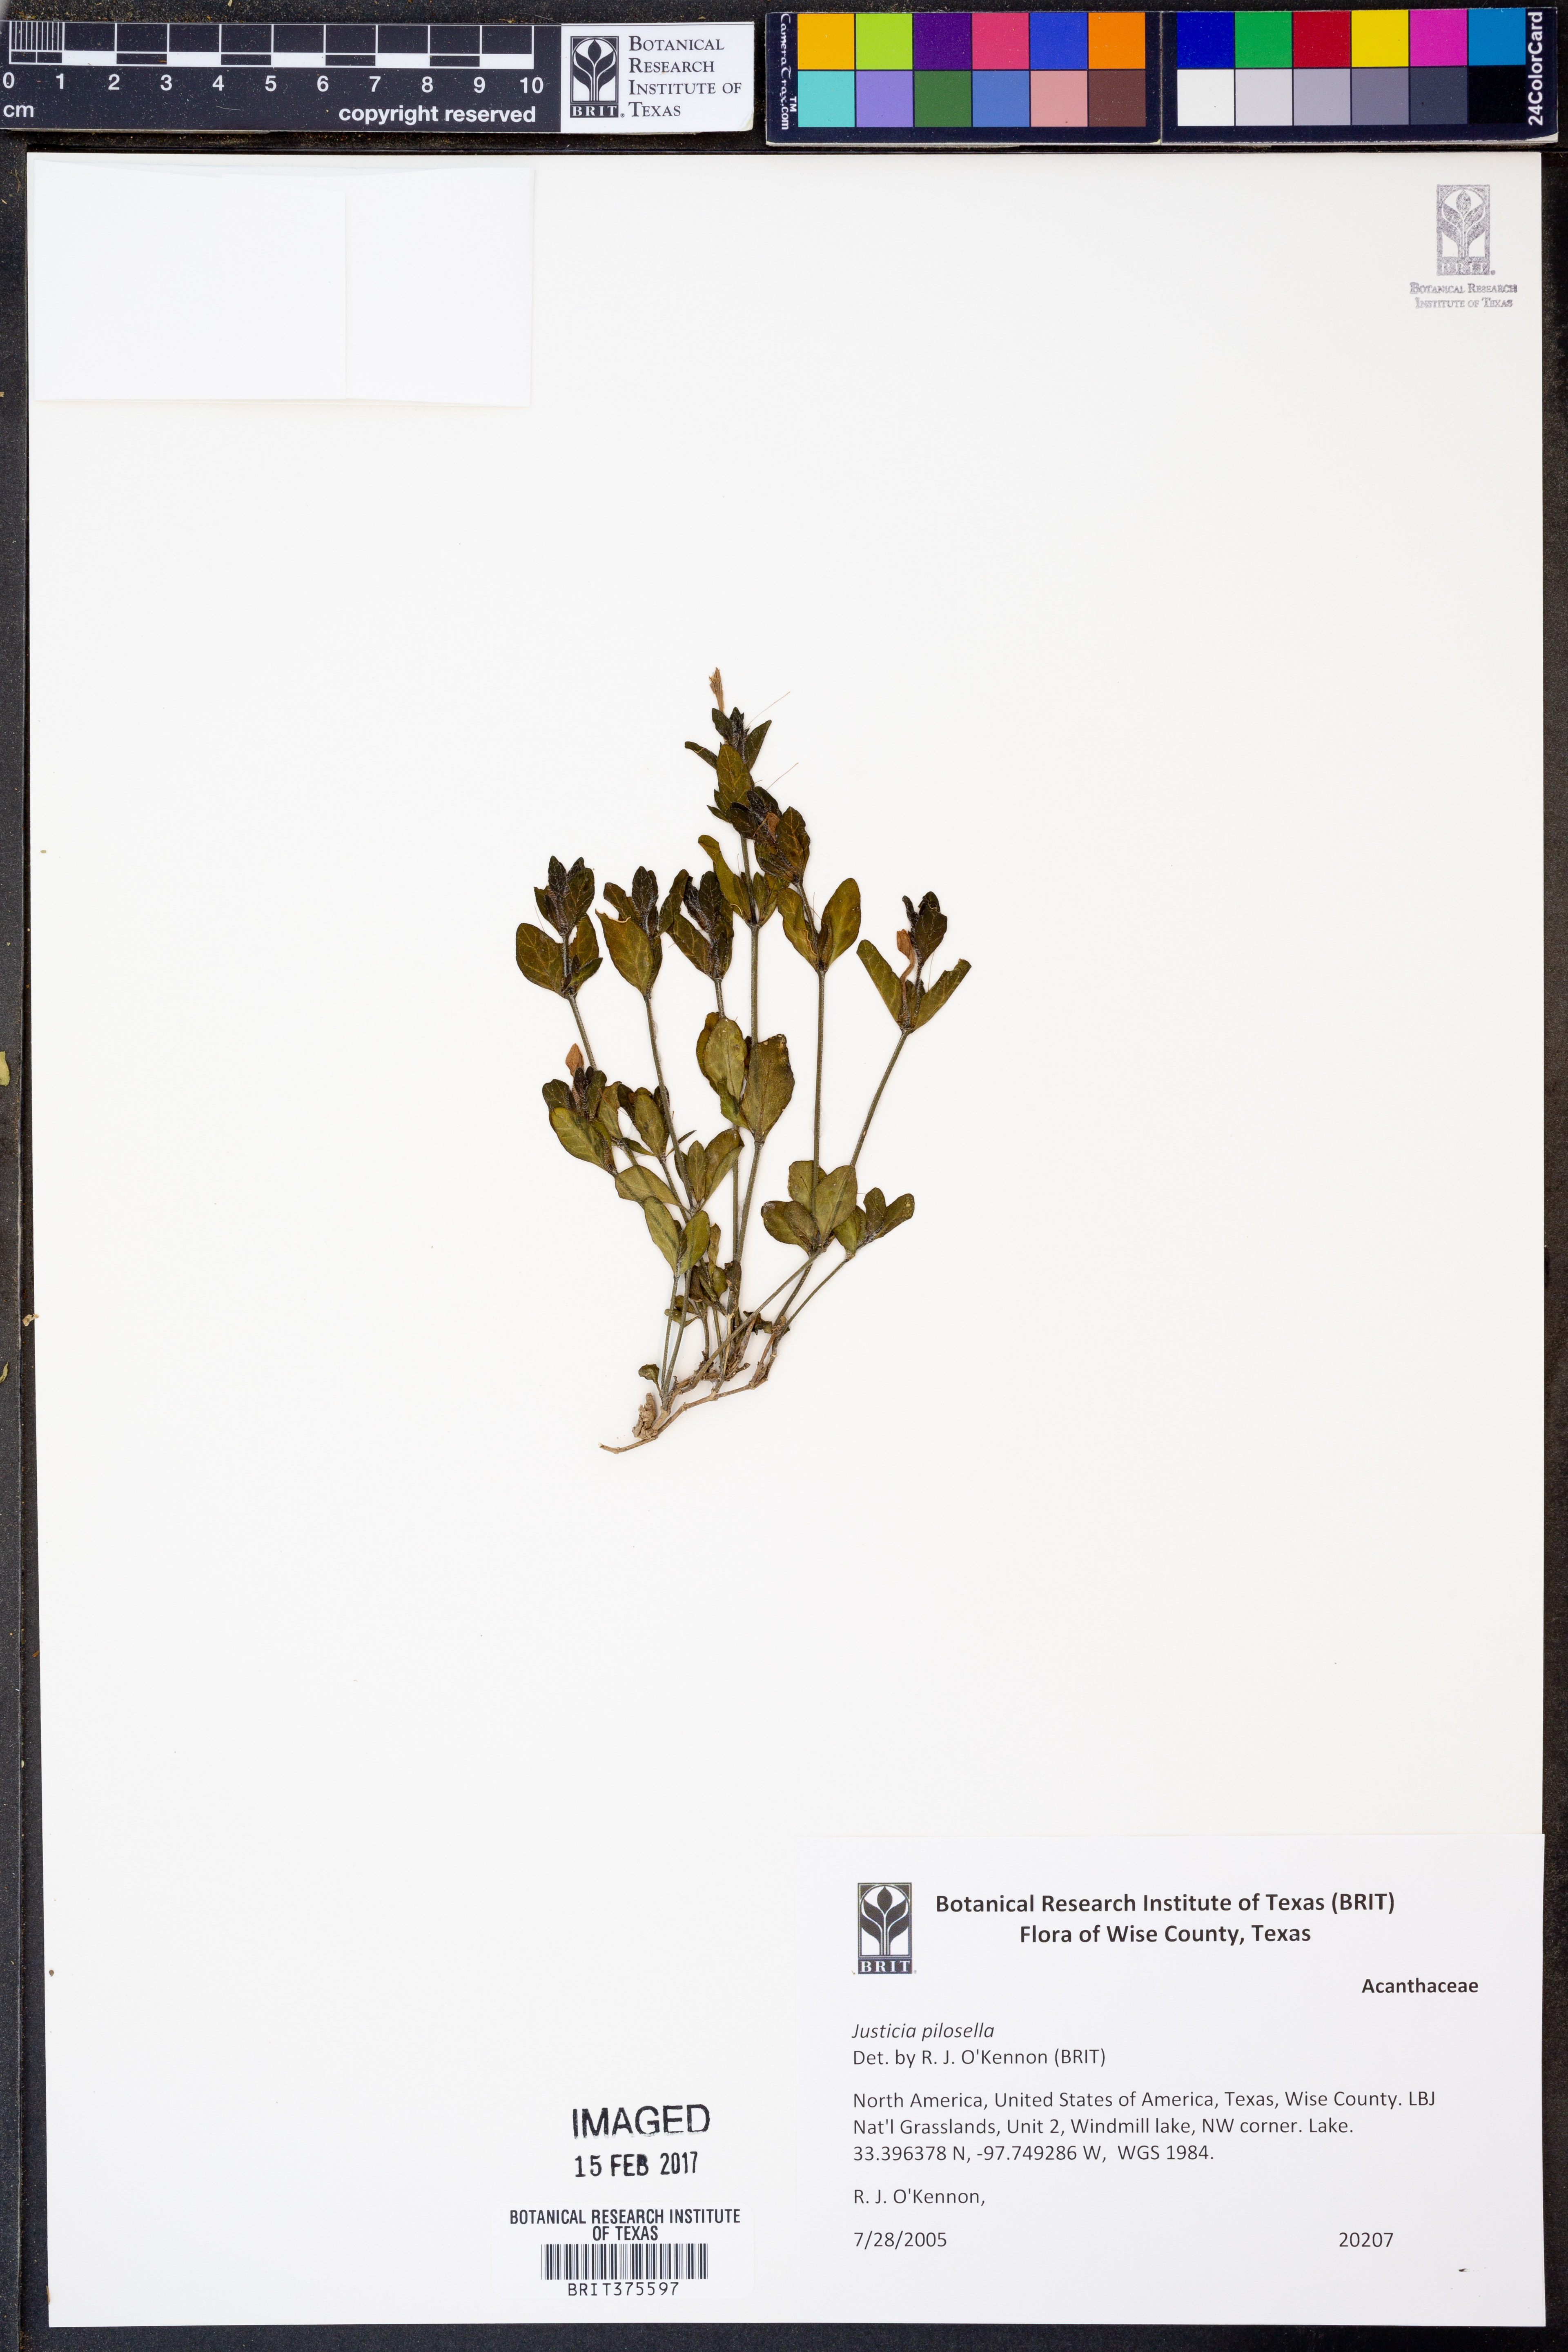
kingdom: Plantae
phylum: Tracheophyta
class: Magnoliopsida
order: Lamiales
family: Acanthaceae
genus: Justicia
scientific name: Justicia pilosella
